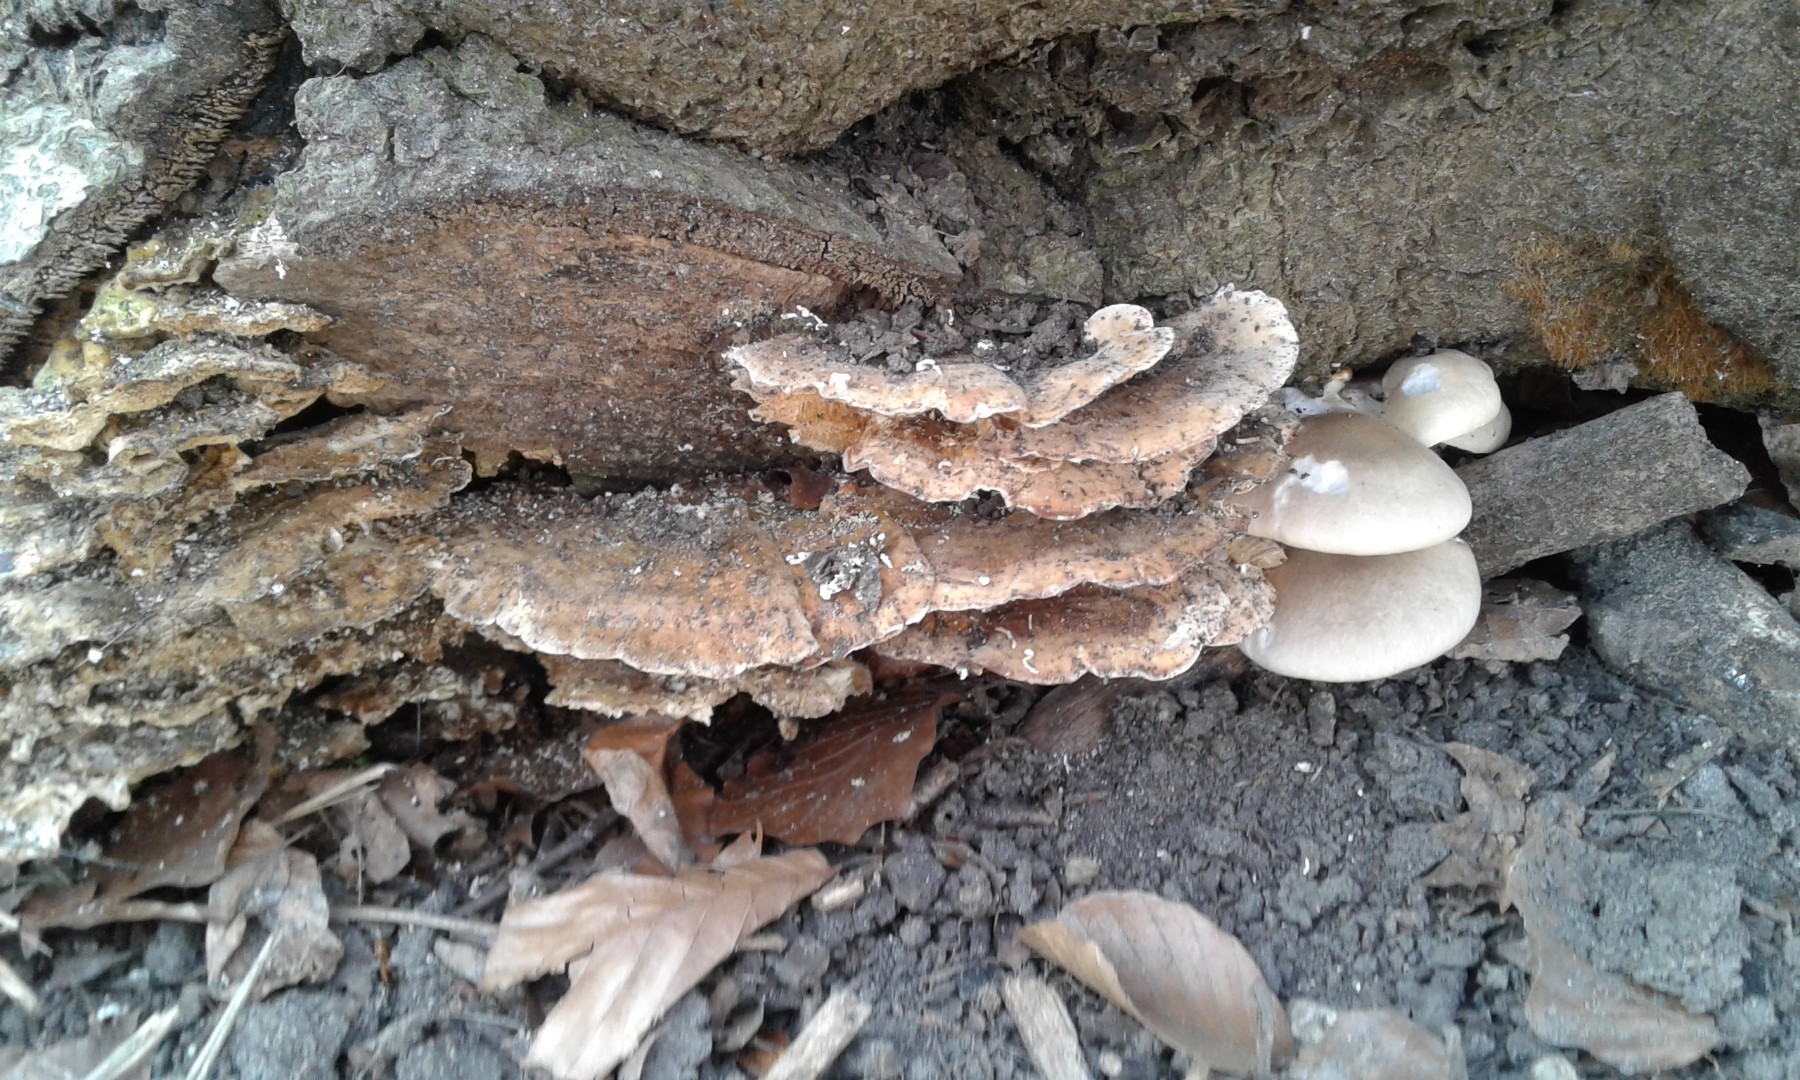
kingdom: Fungi
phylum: Basidiomycota
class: Agaricomycetes
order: Agaricales
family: Pleurotaceae
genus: Pleurotus
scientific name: Pleurotus ostreatus
